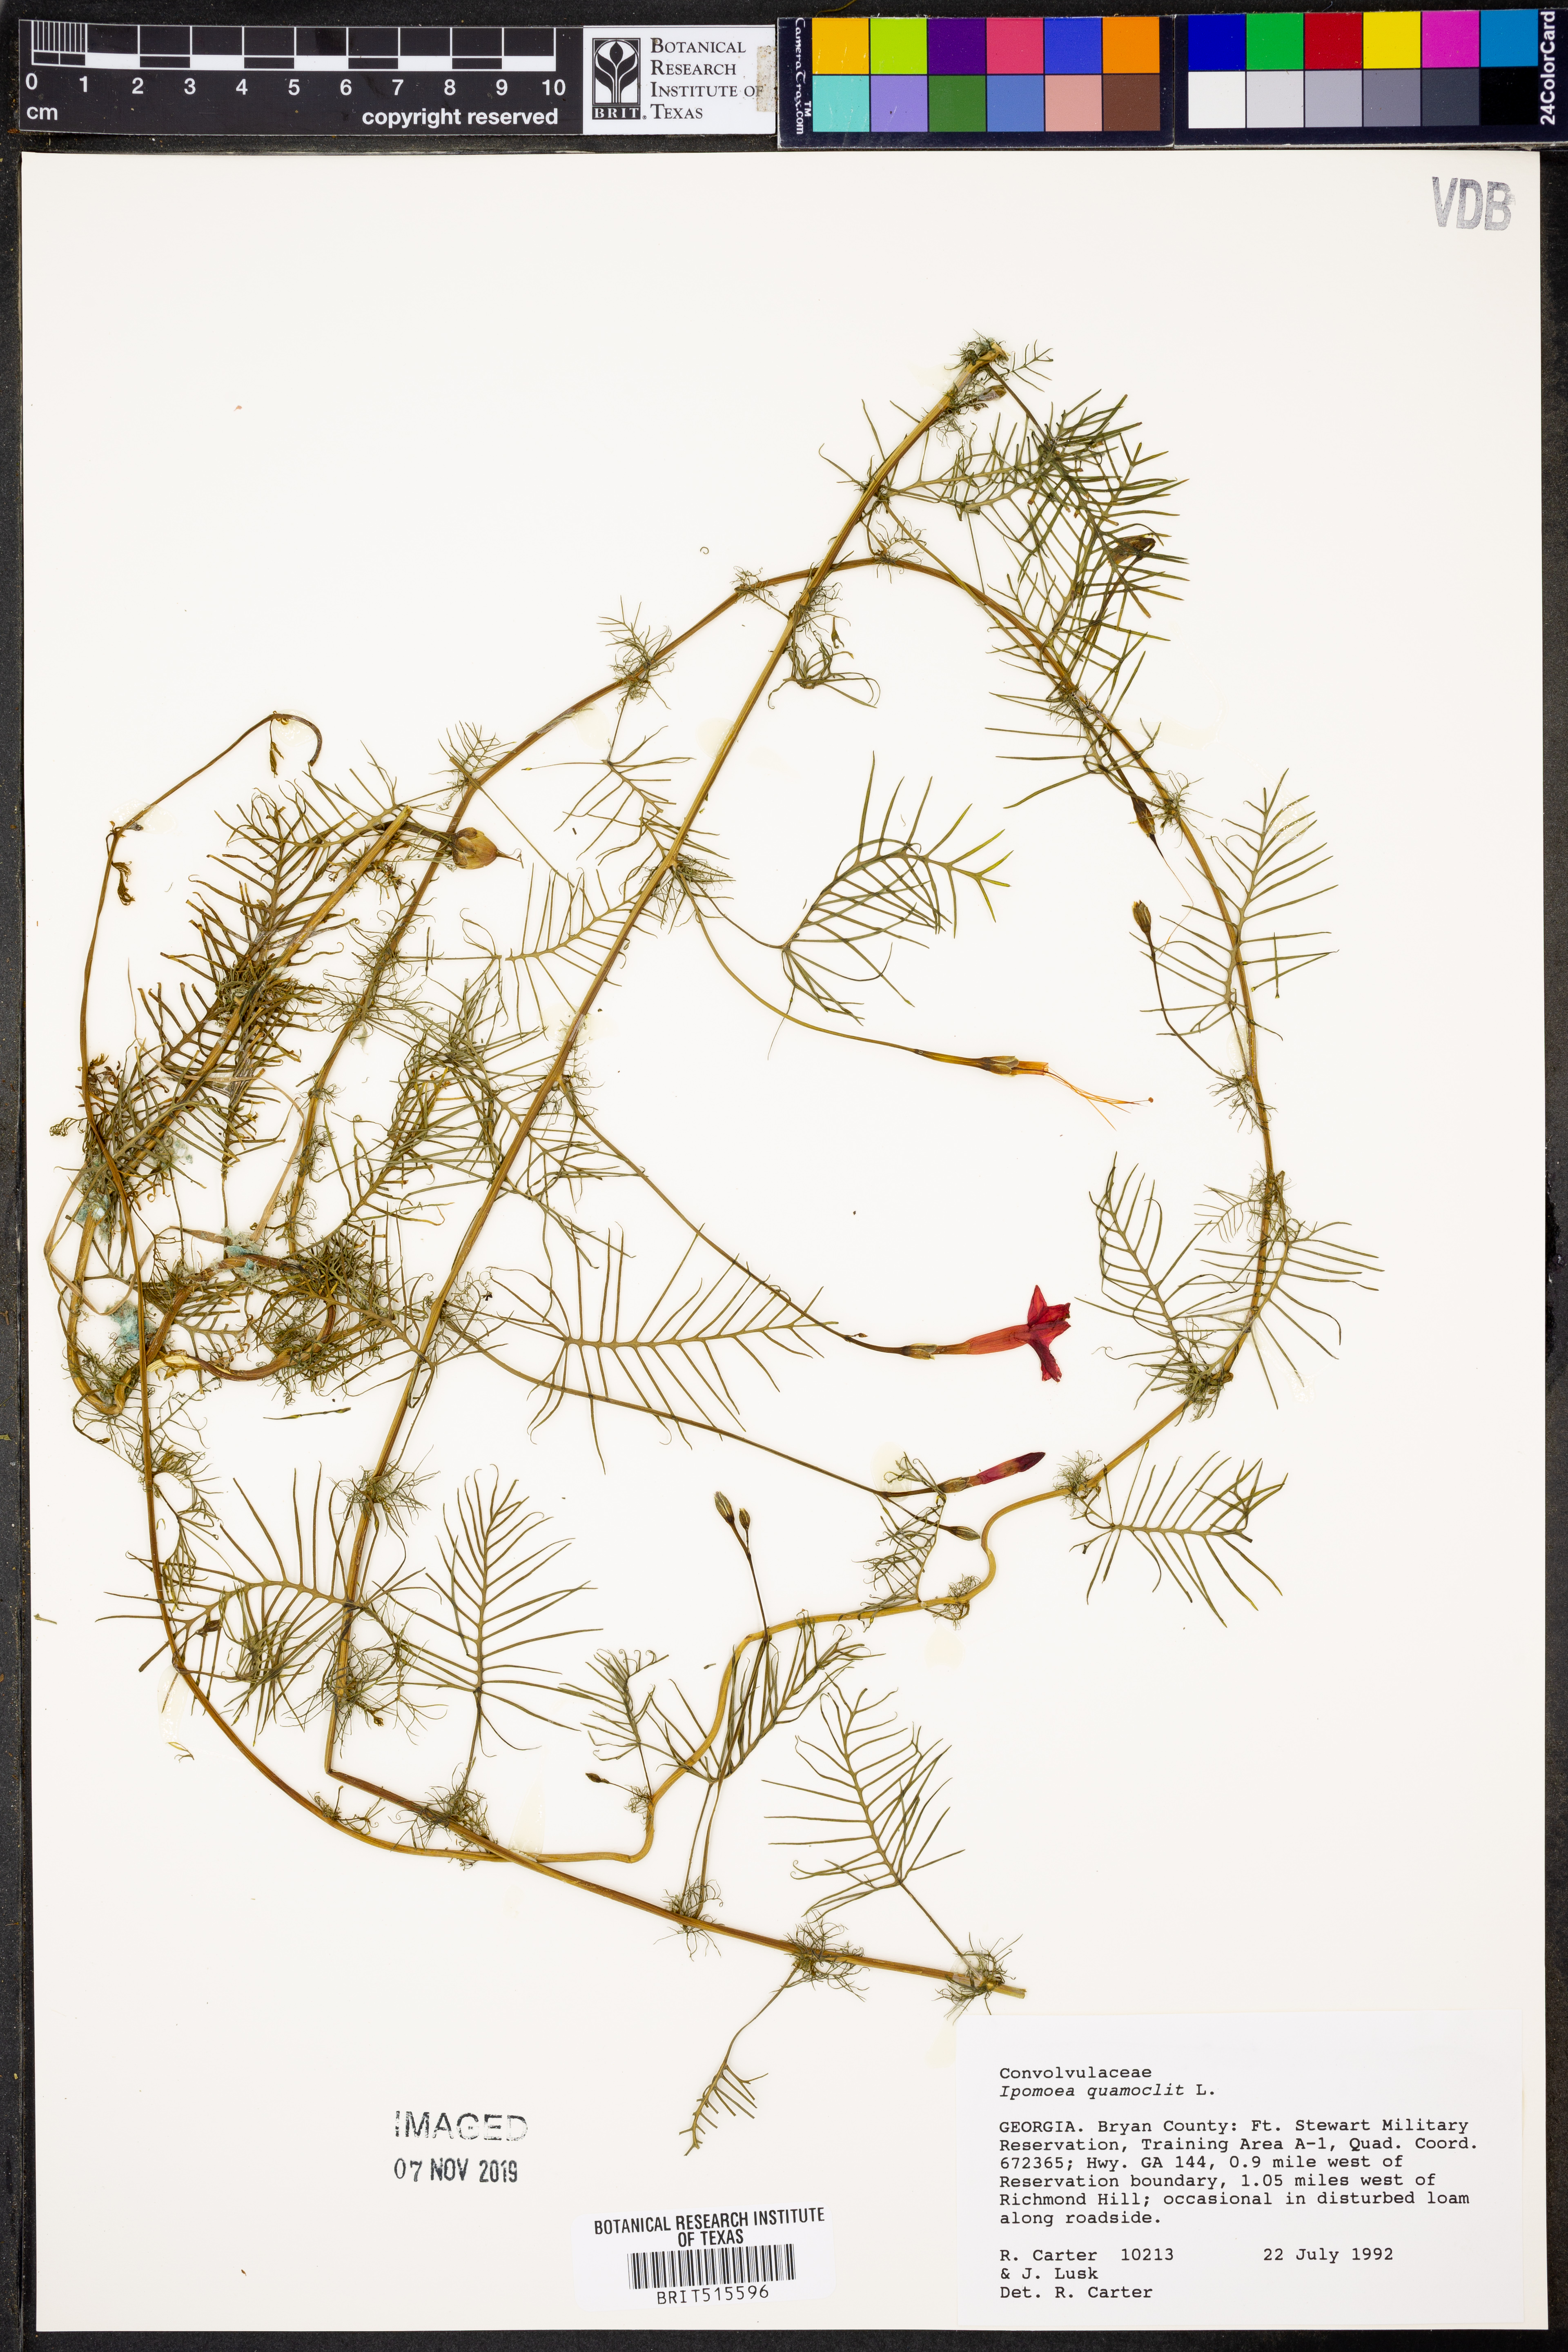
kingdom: Plantae
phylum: Tracheophyta
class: Magnoliopsida
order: Solanales
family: Convolvulaceae
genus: Ipomoea
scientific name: Ipomoea quamoclit
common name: Cypress vine
